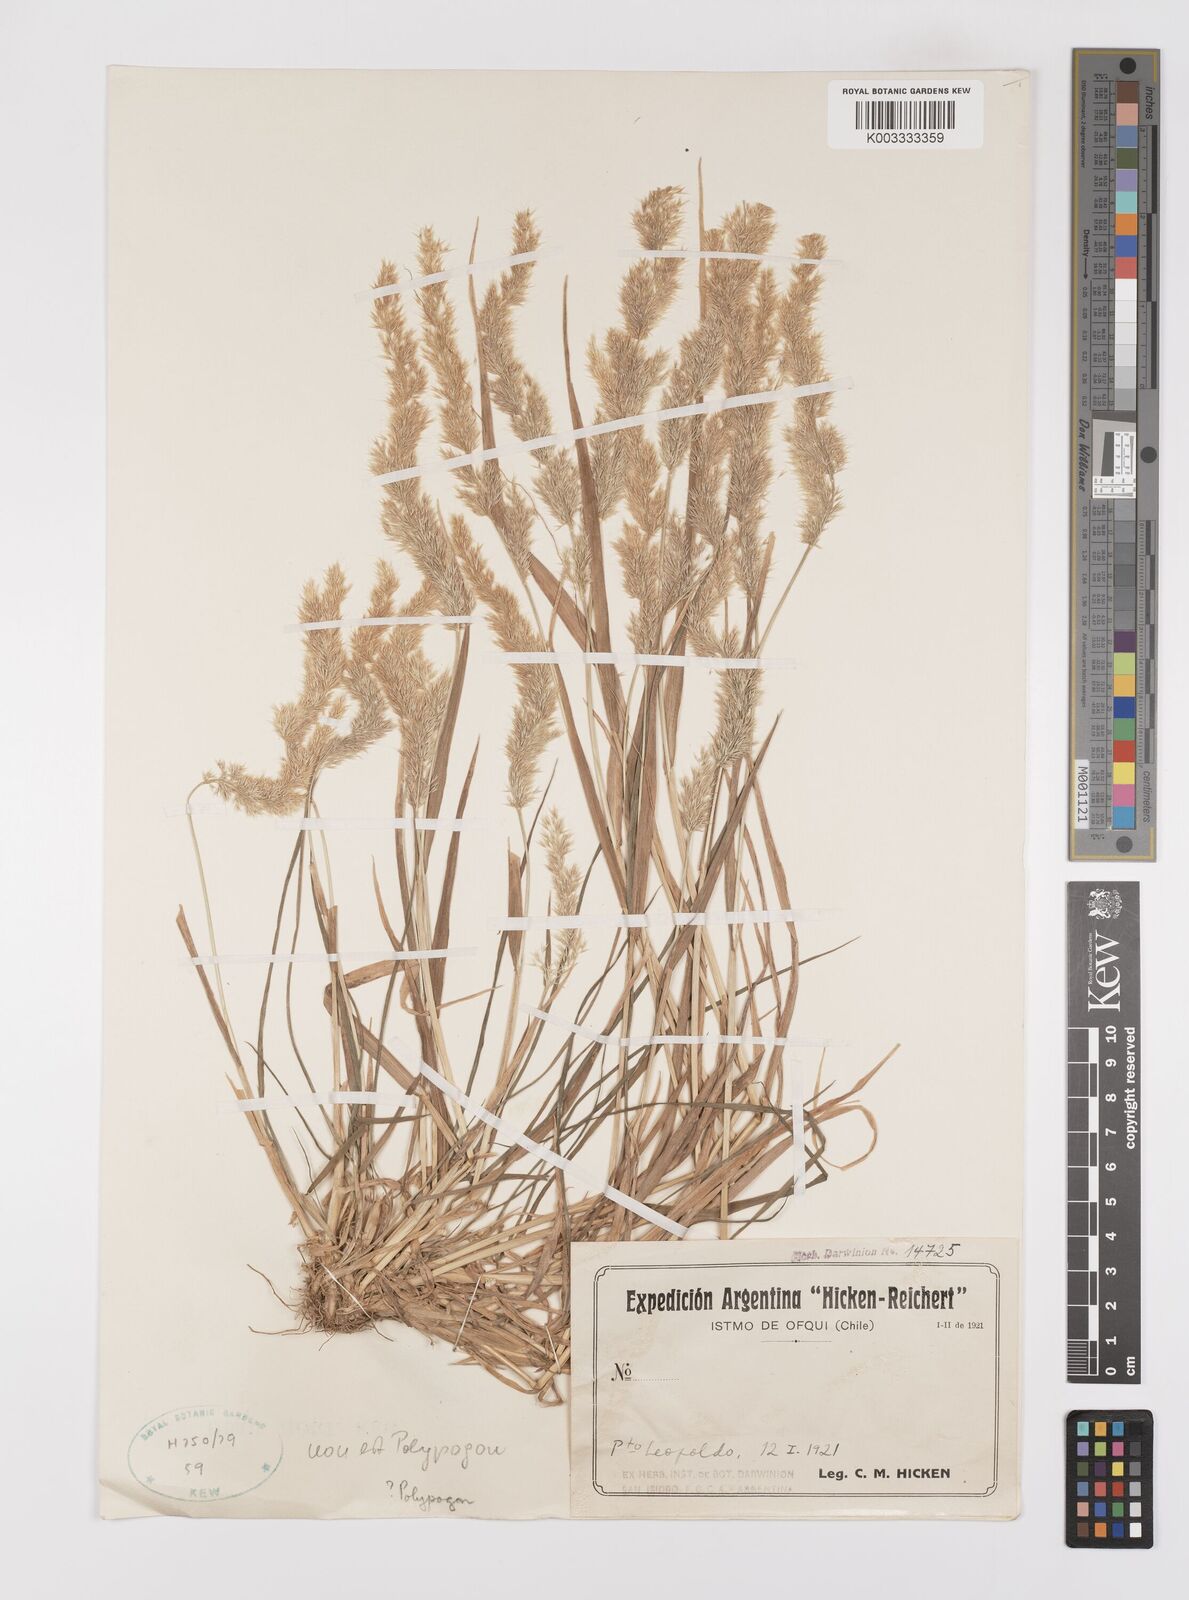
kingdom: Plantae
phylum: Tracheophyta
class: Liliopsida
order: Poales
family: Poaceae
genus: Polypogon
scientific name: Polypogon
